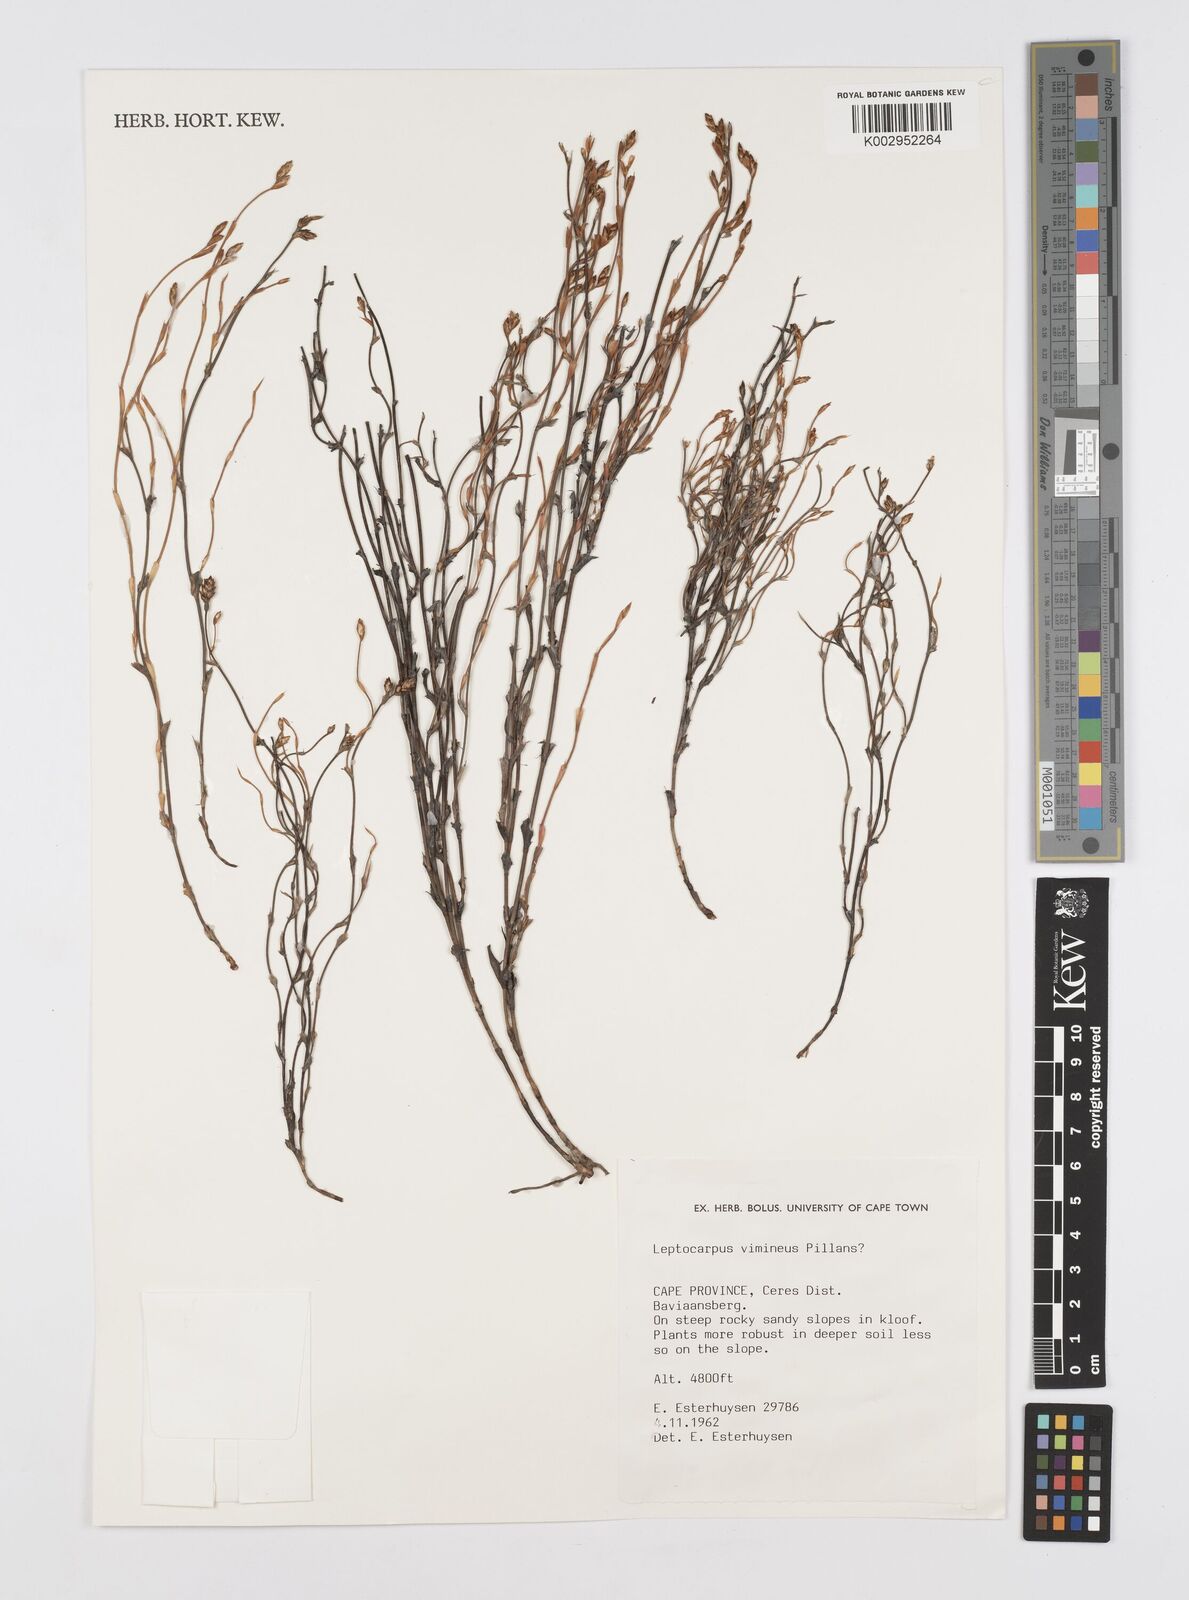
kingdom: Plantae
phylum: Tracheophyta
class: Liliopsida
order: Poales
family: Restionaceae
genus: Restio
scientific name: Restio vimineus
